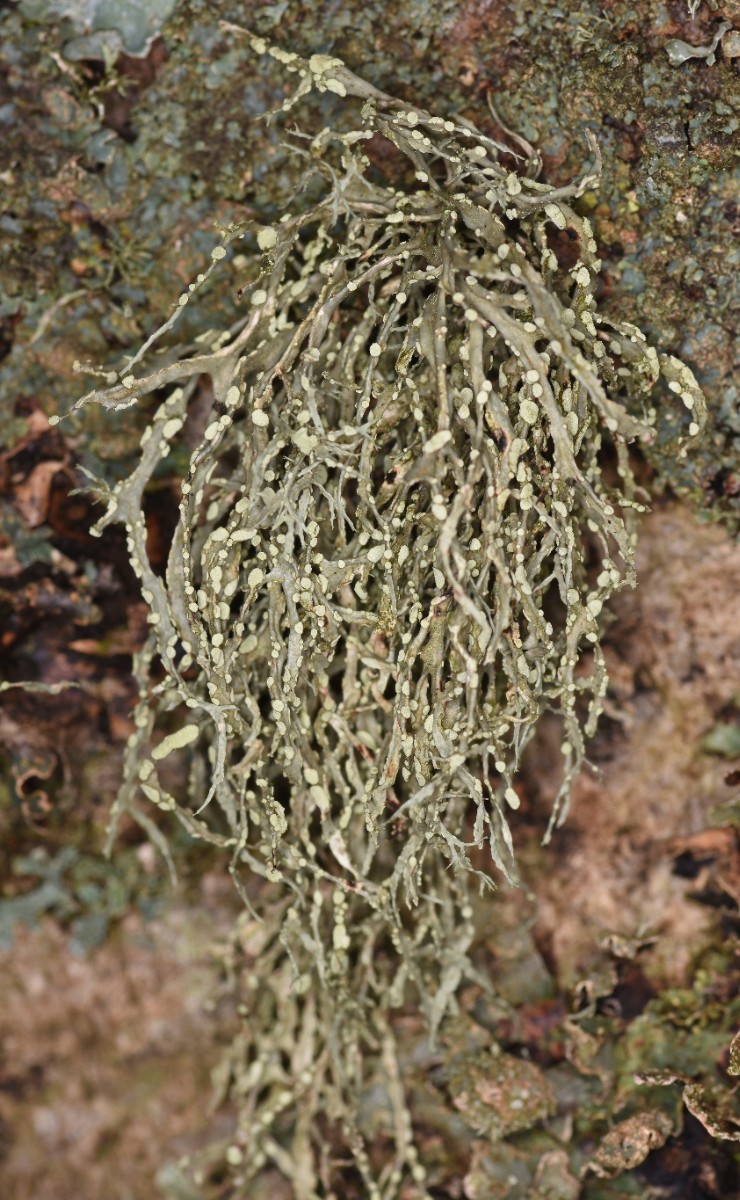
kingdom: Fungi
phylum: Ascomycota
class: Lecanoromycetes
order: Lecanorales
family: Ramalinaceae
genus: Ramalina
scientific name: Ramalina farinacea
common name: melet grenlav
